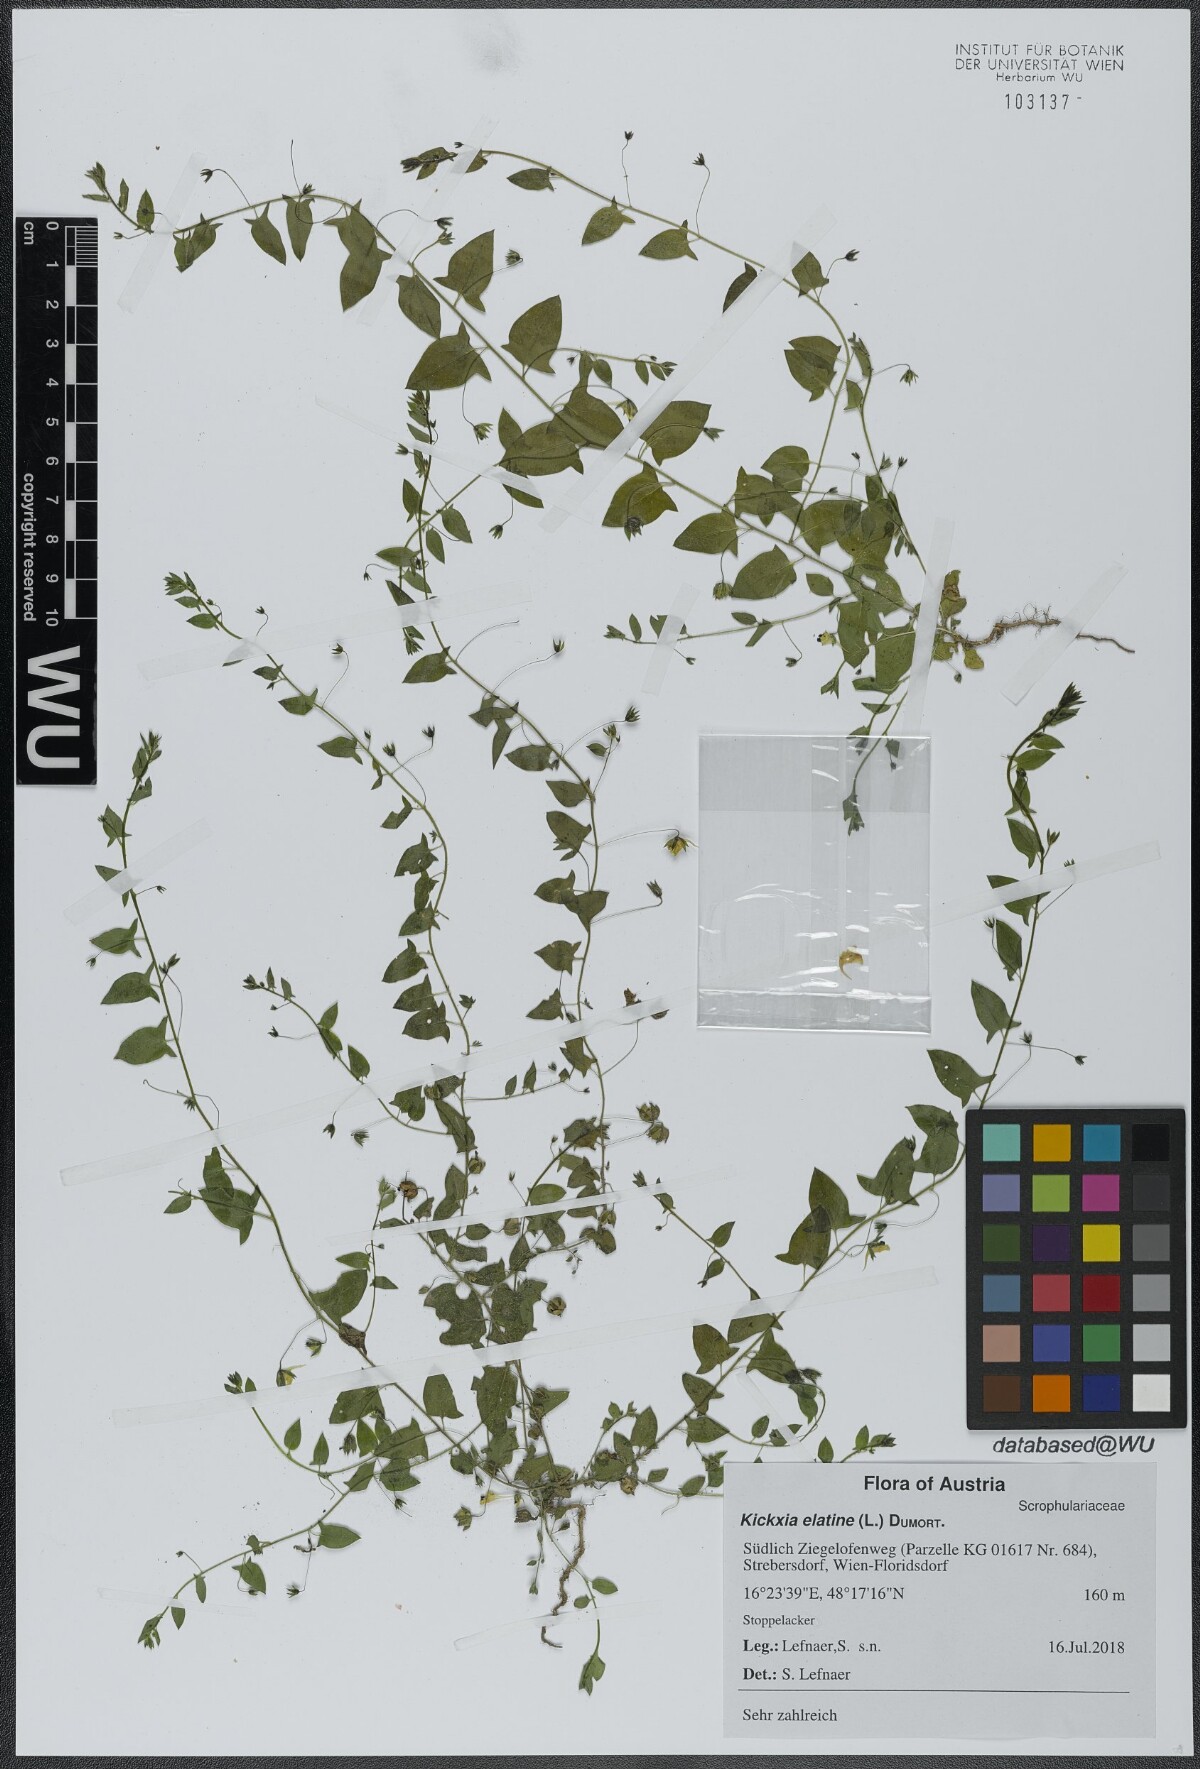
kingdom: Plantae
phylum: Tracheophyta
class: Magnoliopsida
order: Lamiales
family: Plantaginaceae
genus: Kickxia
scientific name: Kickxia elatine
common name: Sharp-leaved fluellen
